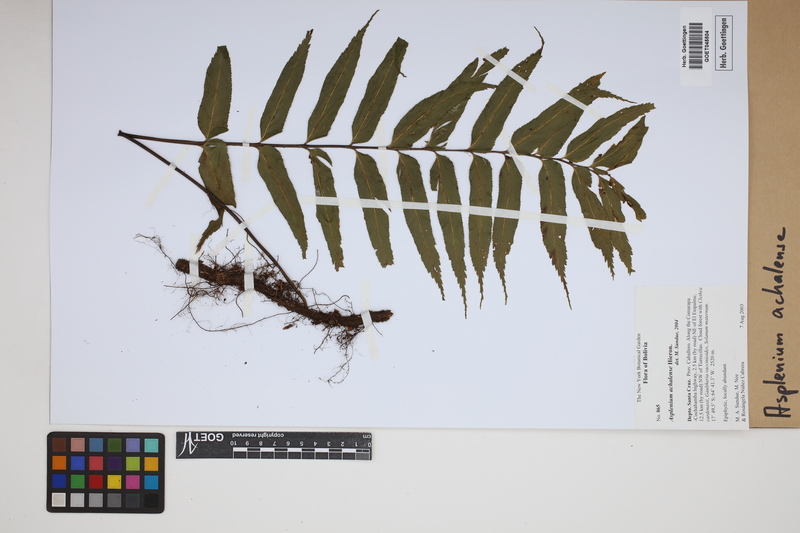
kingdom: Plantae
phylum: Tracheophyta
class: Polypodiopsida
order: Polypodiales
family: Aspleniaceae
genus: Asplenium
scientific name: Asplenium achalense
